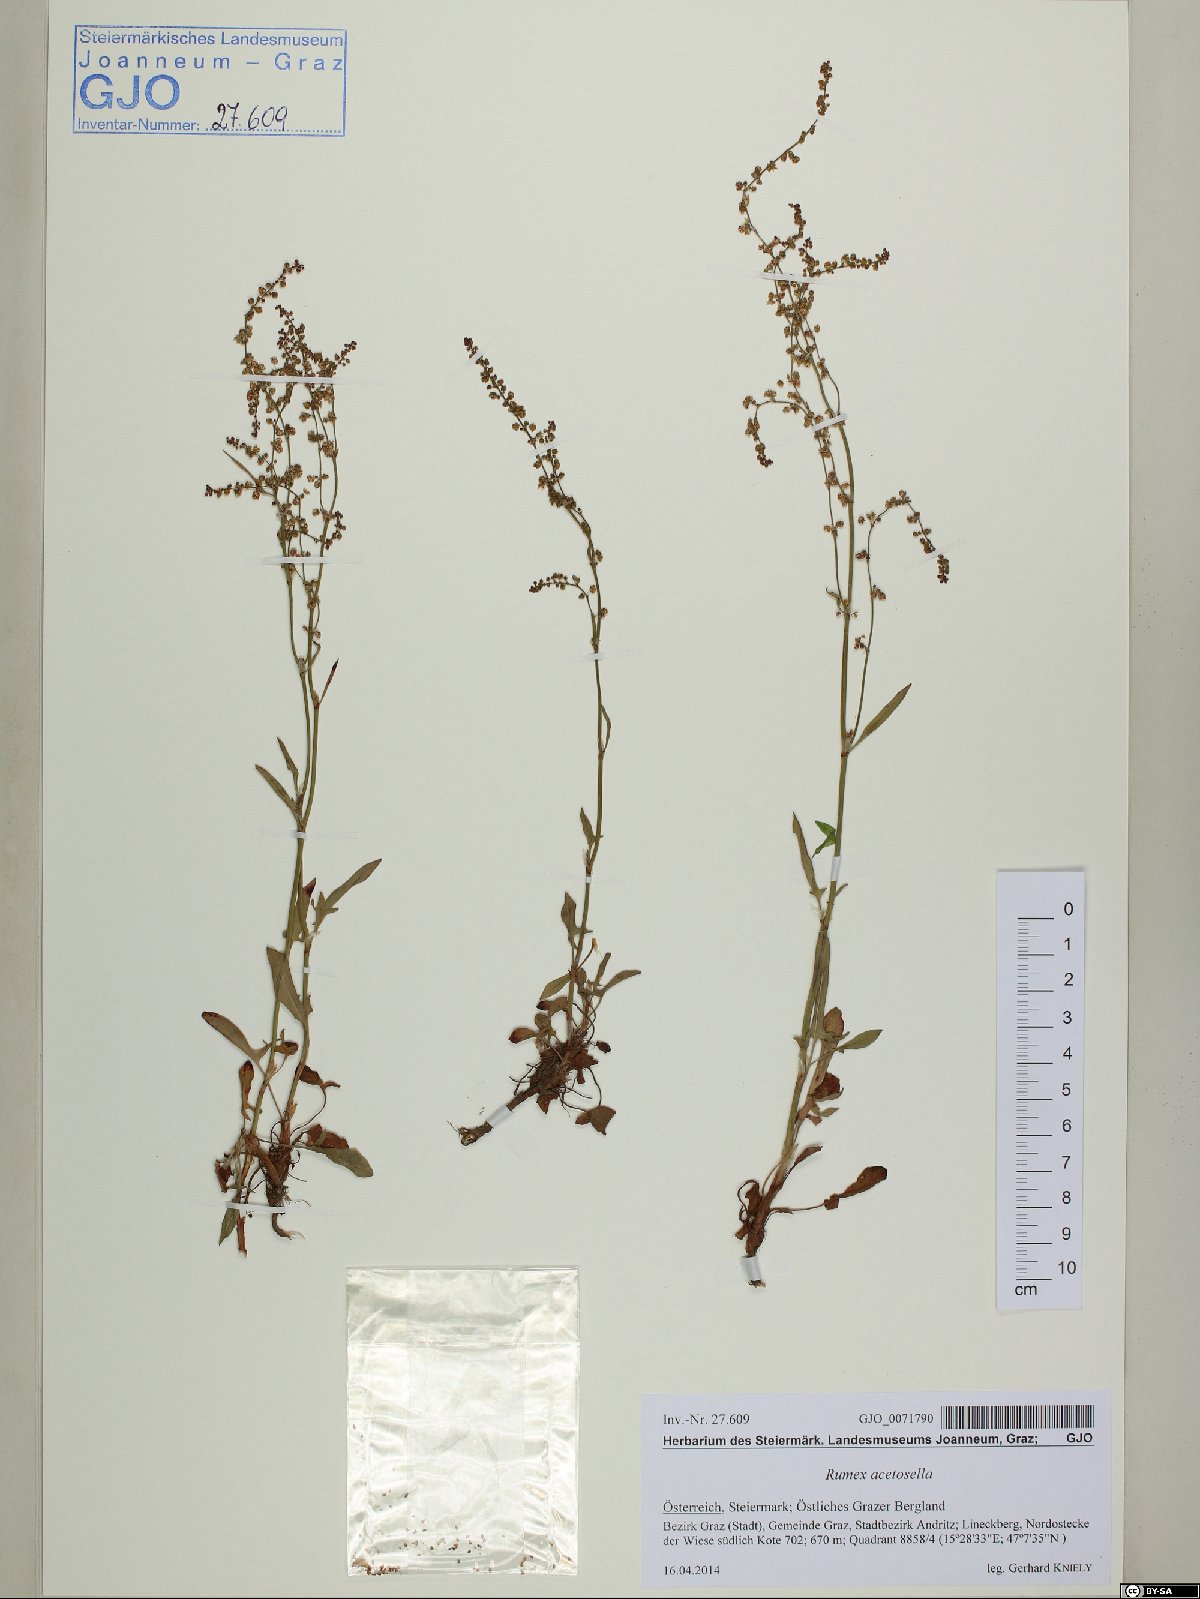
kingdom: Plantae
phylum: Tracheophyta
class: Magnoliopsida
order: Caryophyllales
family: Polygonaceae
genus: Rumex
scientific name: Rumex acetosella
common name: Common sheep sorrel
